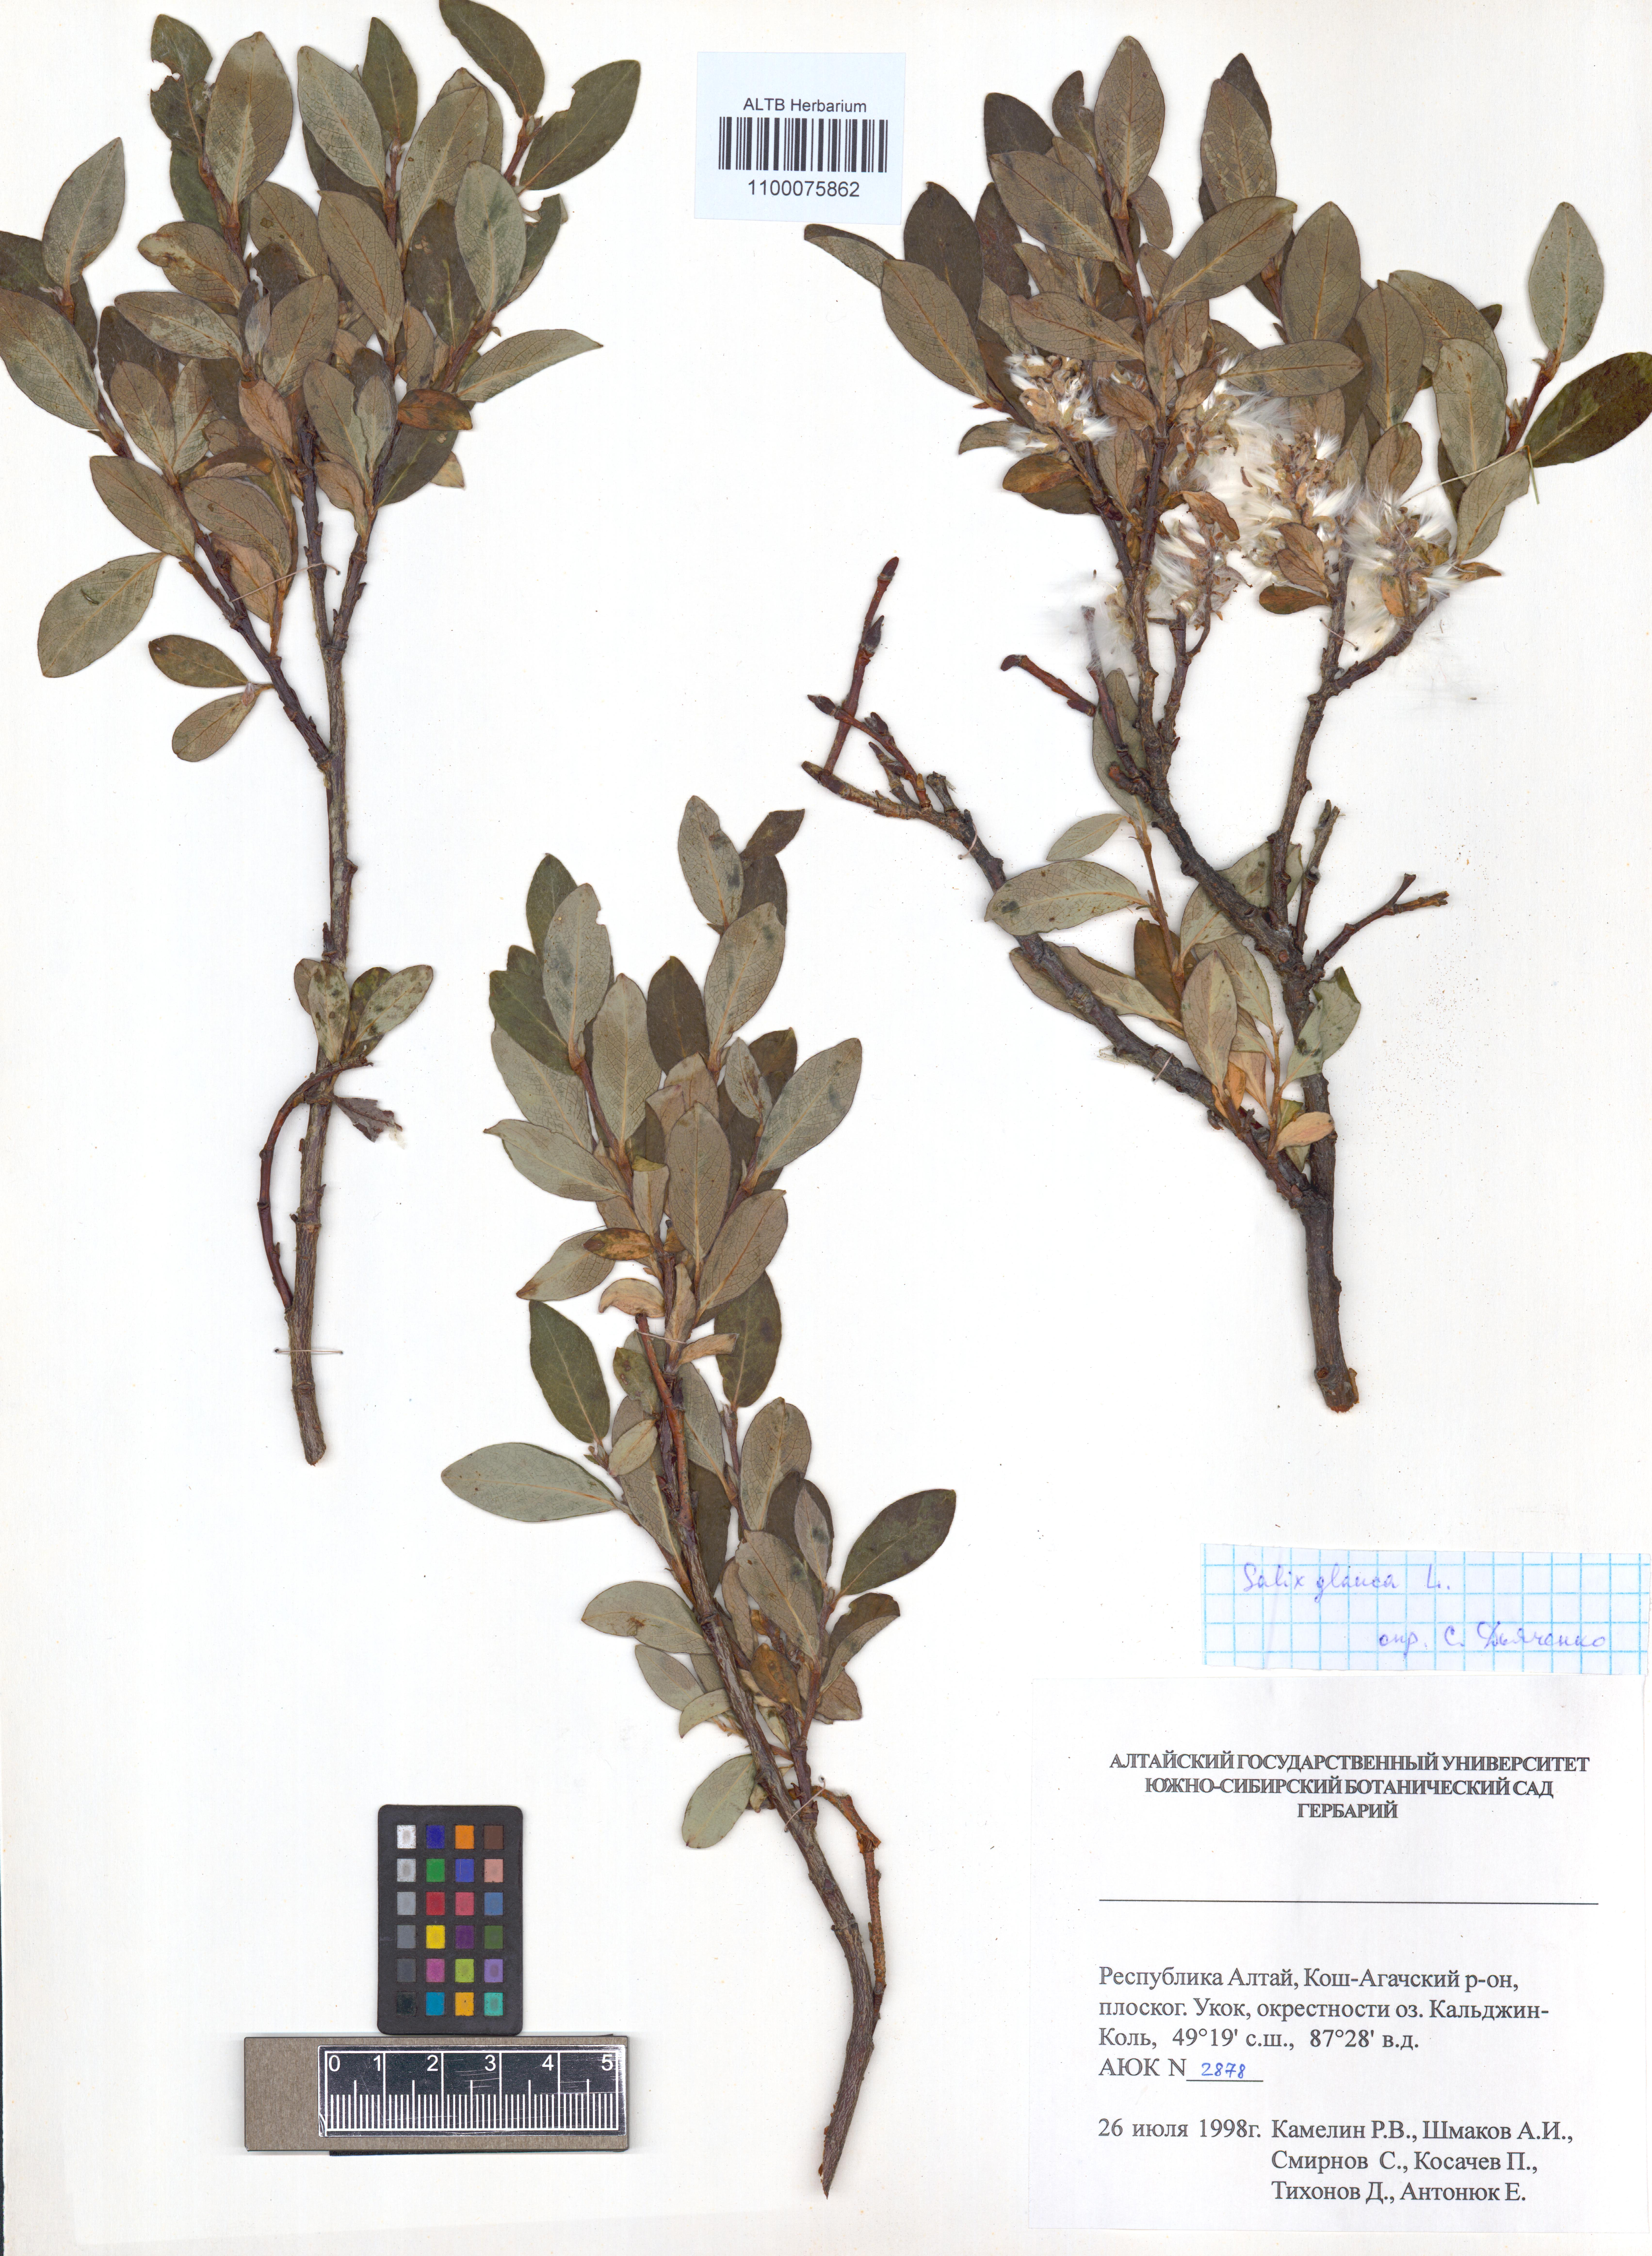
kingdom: Plantae
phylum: Tracheophyta
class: Magnoliopsida
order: Malpighiales
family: Salicaceae
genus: Salix
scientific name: Salix glauca
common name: Glaucous willow
